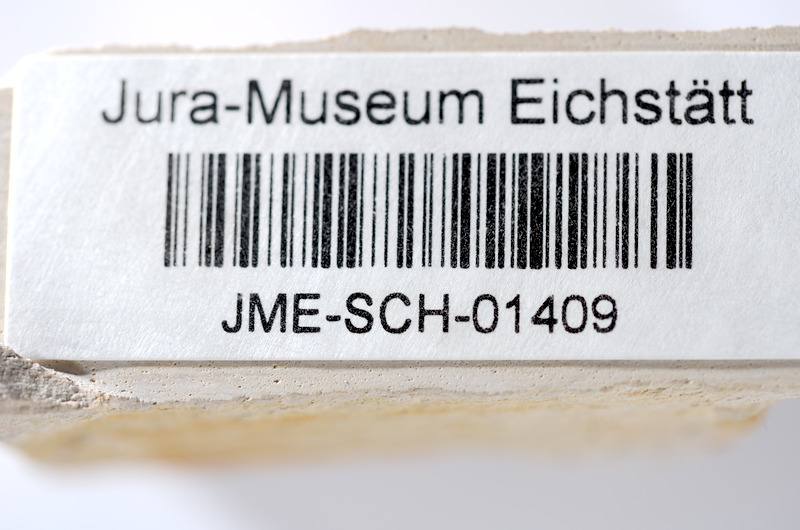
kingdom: Animalia
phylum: Chordata
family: Ascalaboidae
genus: Tharsis
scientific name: Tharsis dubius
